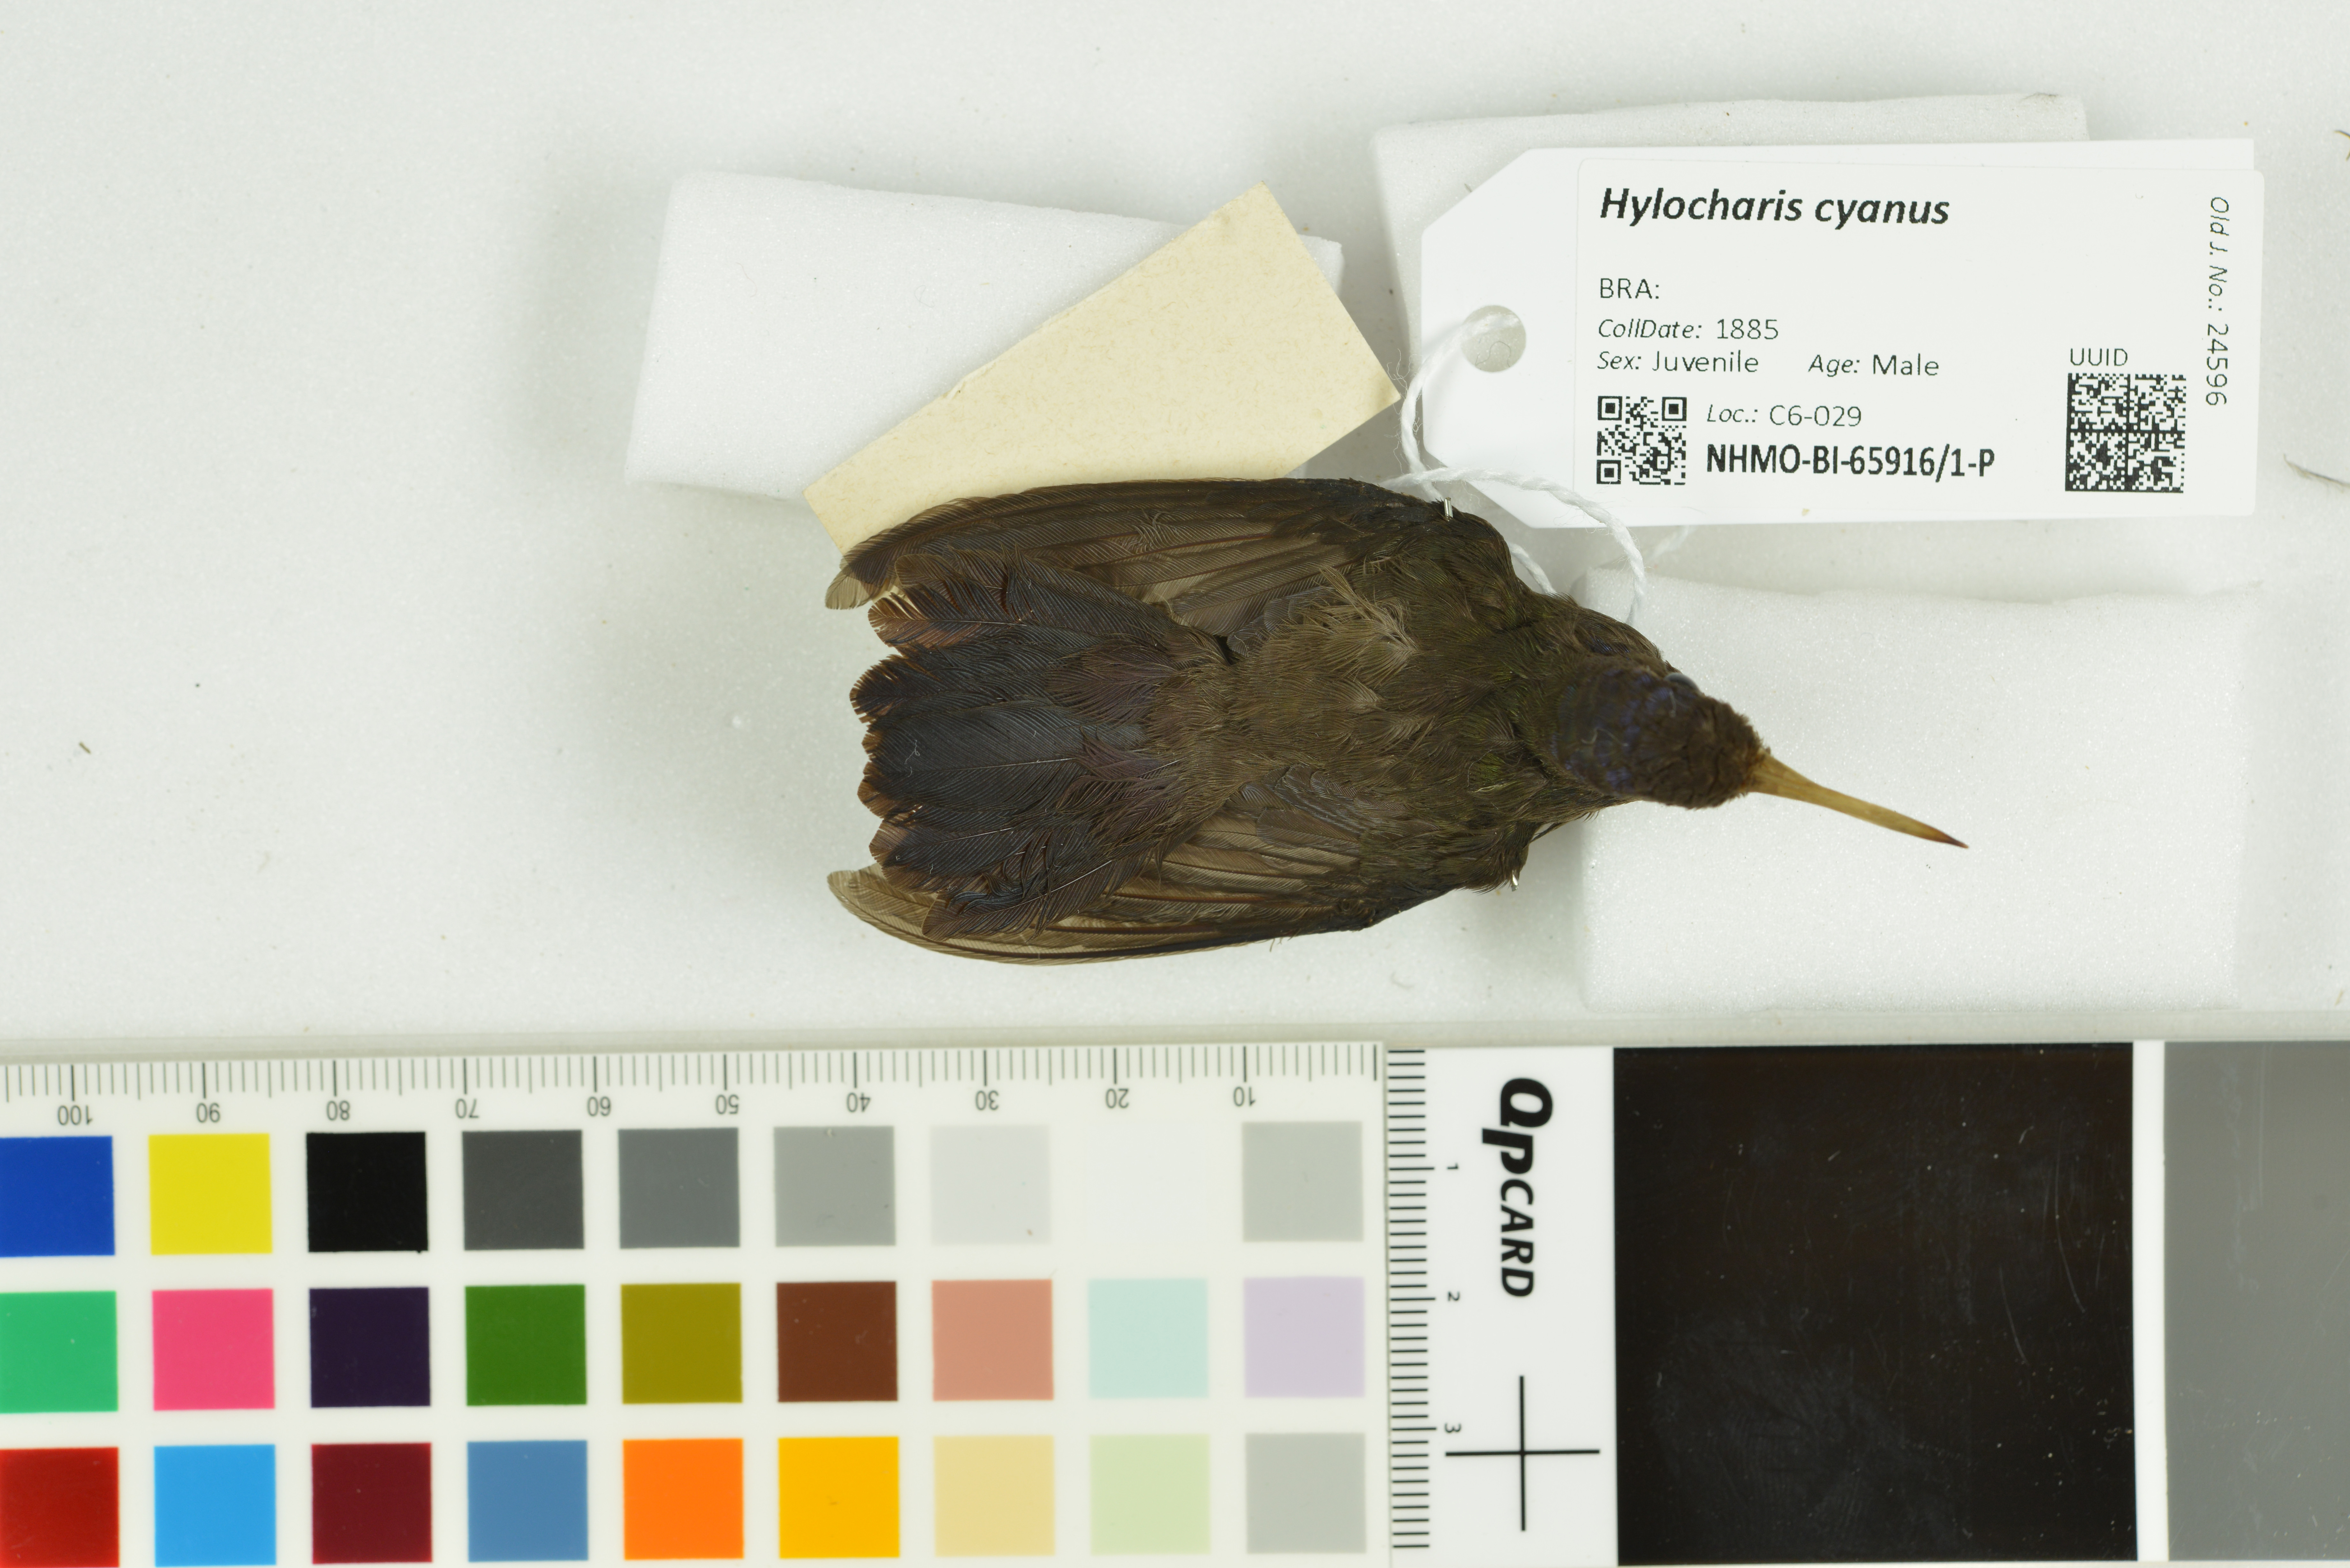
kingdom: Animalia
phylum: Chordata
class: Aves
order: Apodiformes
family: Trochilidae
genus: Chlorestes
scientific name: Chlorestes cyanus
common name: White-chinned sapphire
